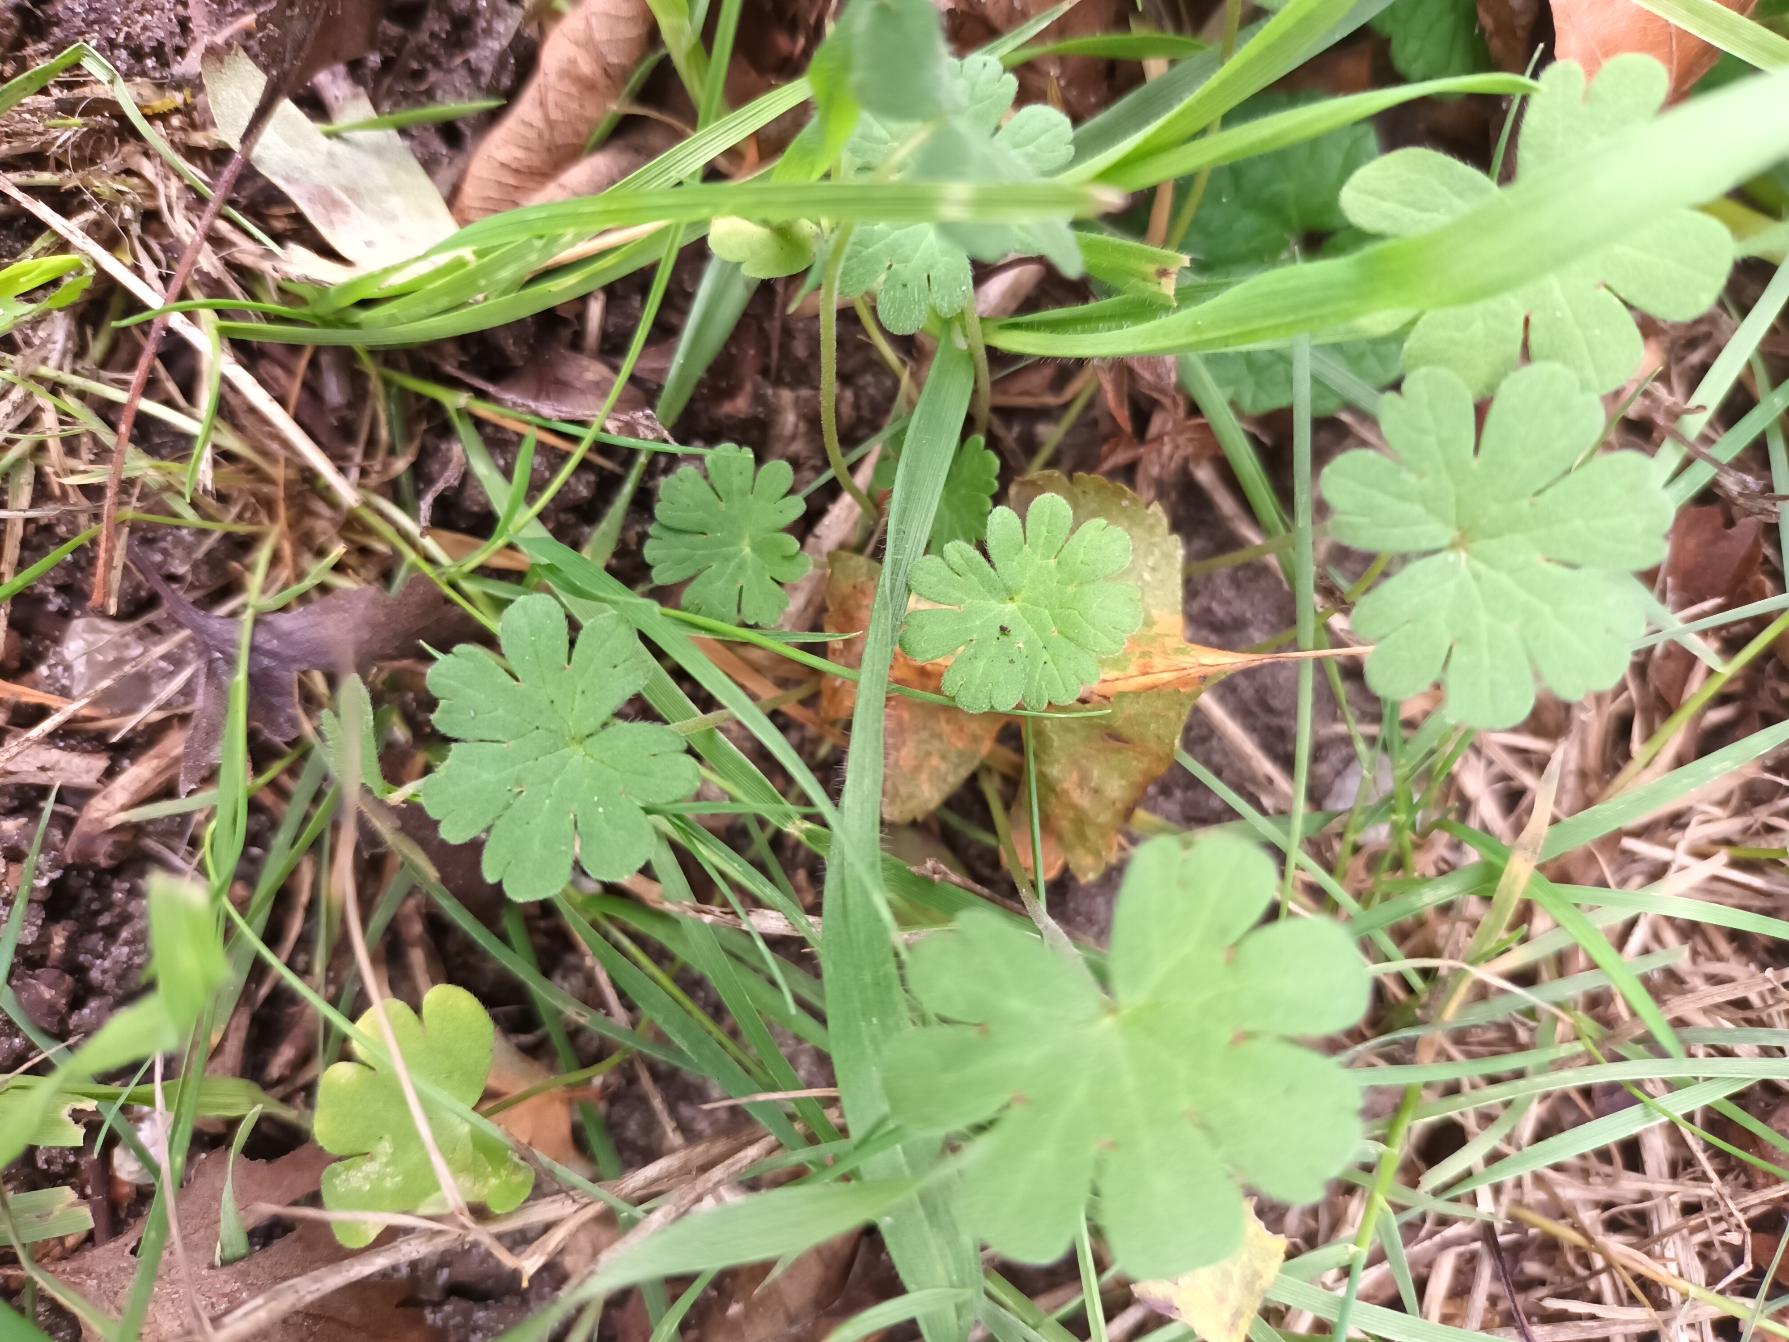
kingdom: Plantae
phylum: Tracheophyta
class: Magnoliopsida
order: Geraniales
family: Geraniaceae
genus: Geranium
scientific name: Geranium pusillum
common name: Liden storkenæb
